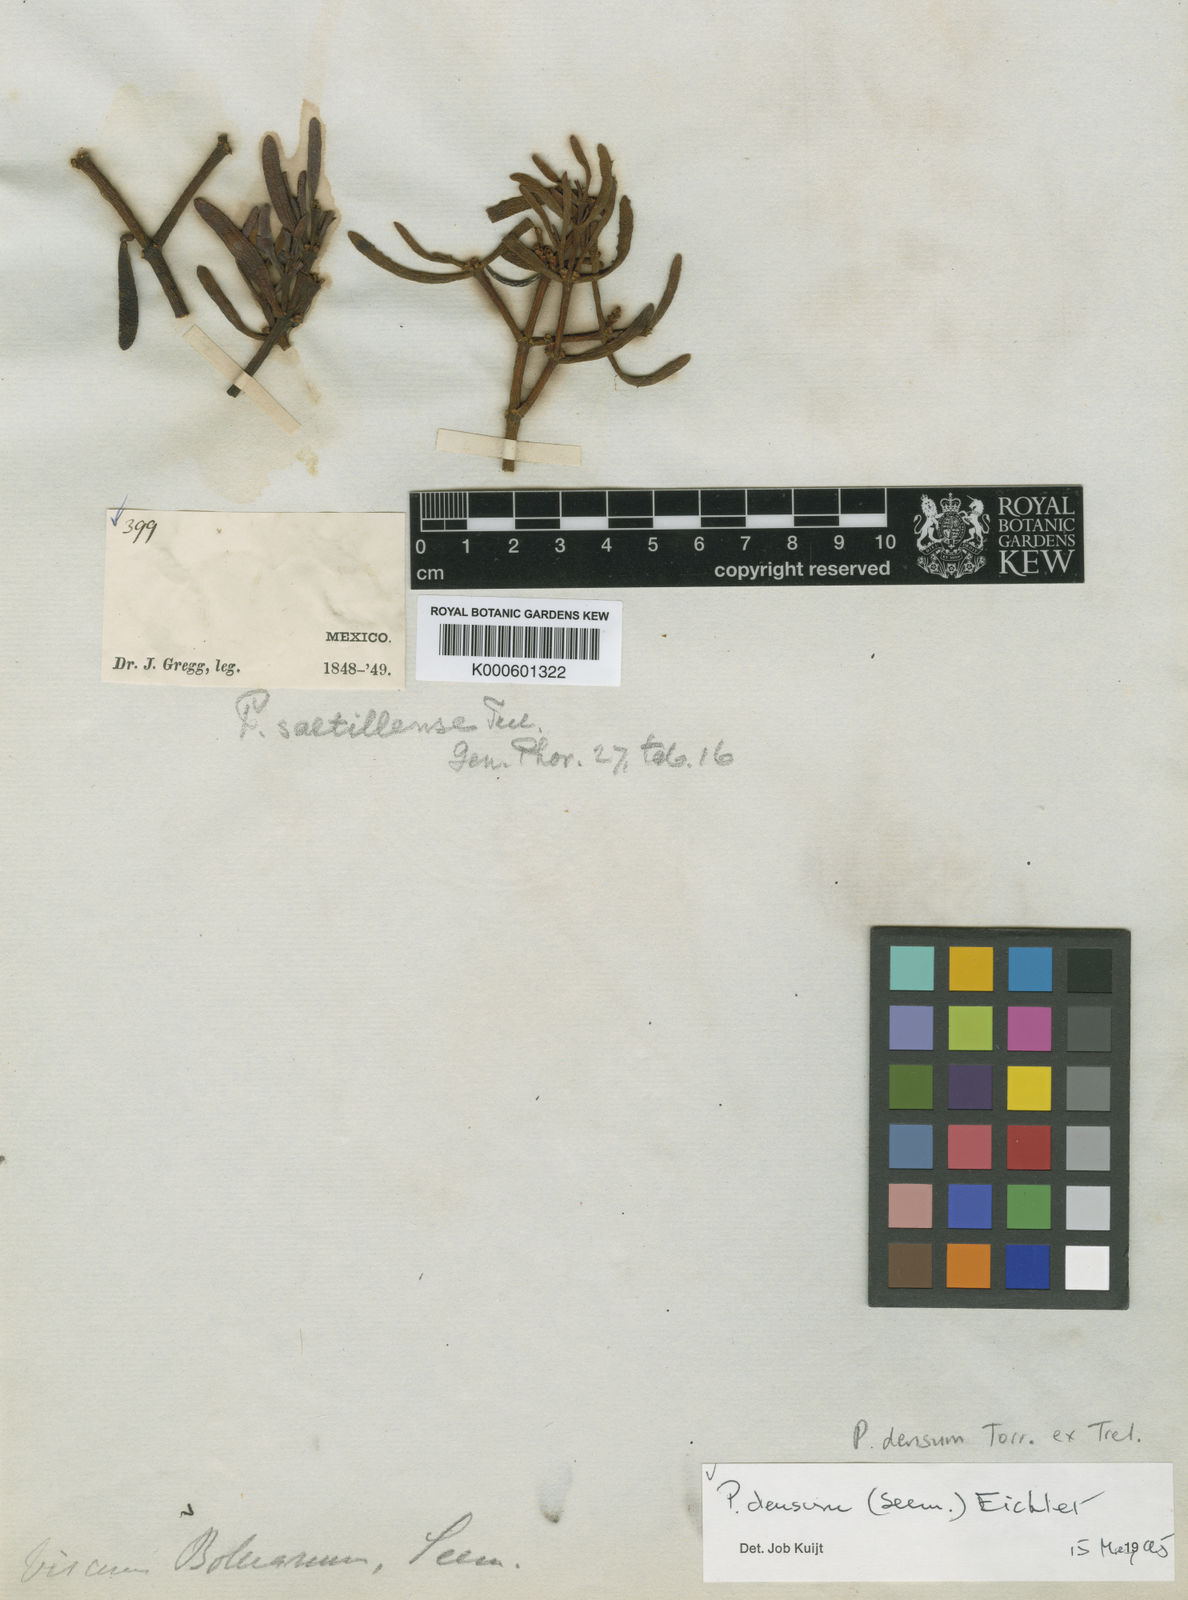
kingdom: Plantae
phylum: Tracheophyta
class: Magnoliopsida
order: Santalales
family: Viscaceae
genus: Phoradendron
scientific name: Phoradendron densum
